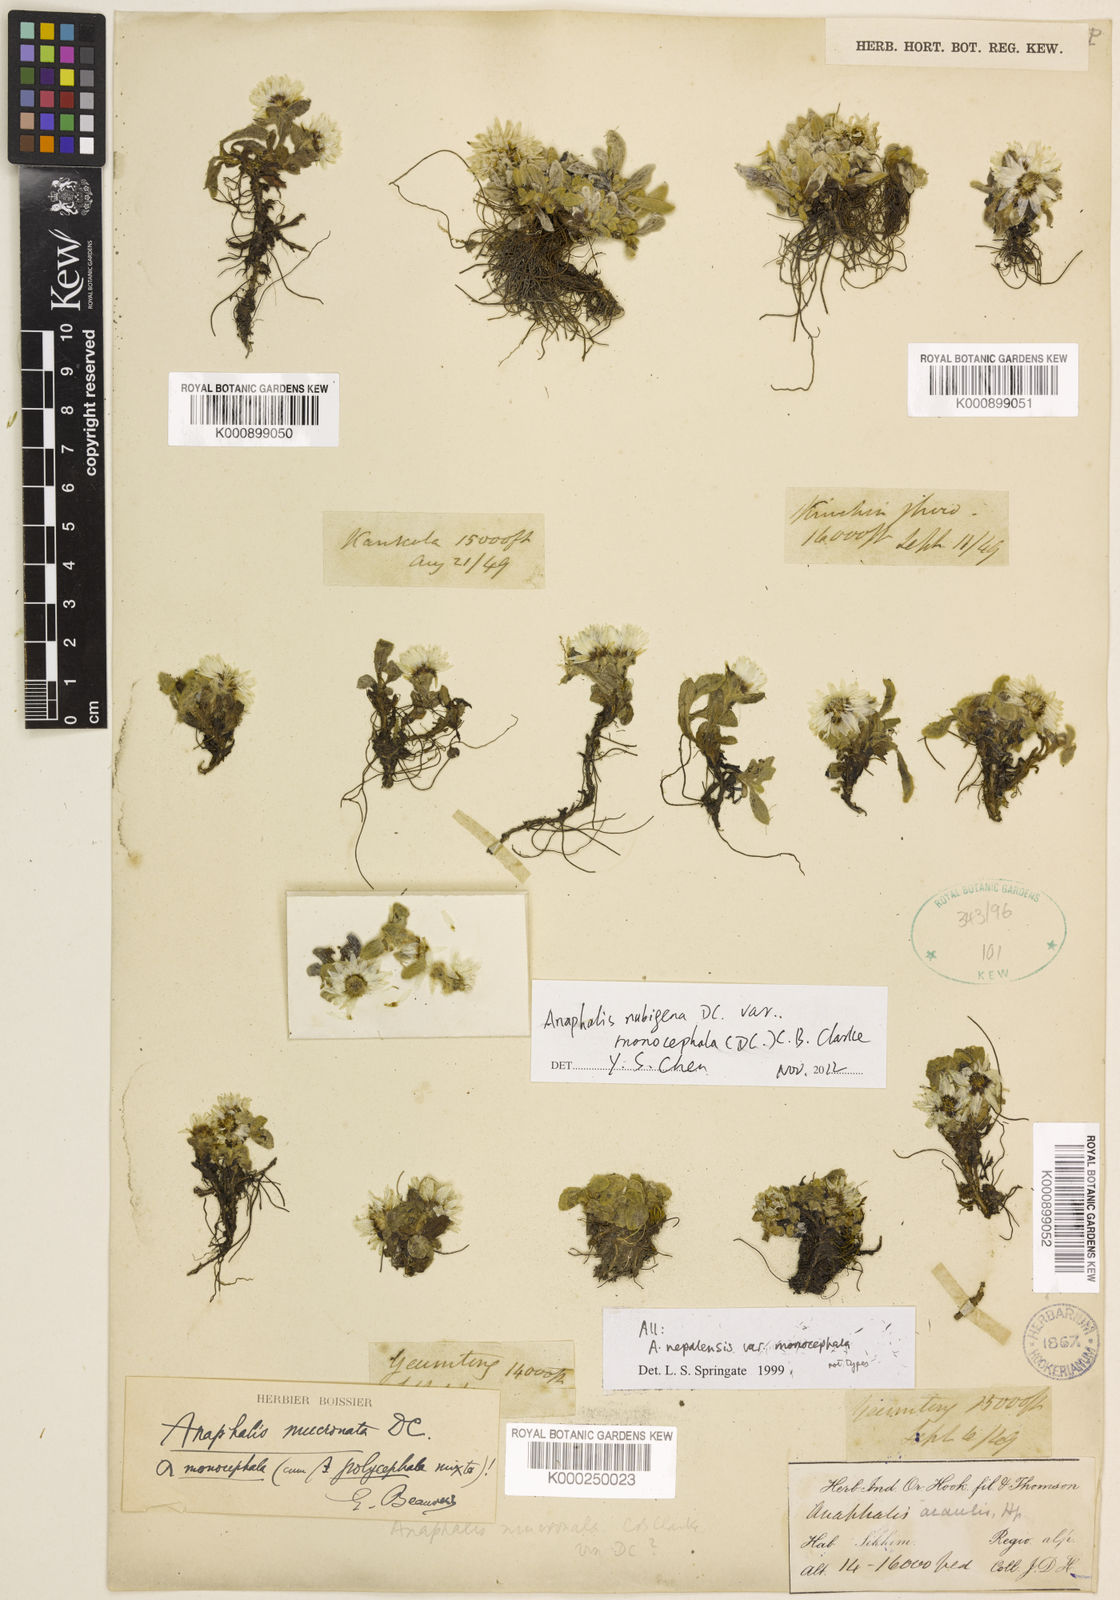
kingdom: Plantae
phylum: Tracheophyta
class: Magnoliopsida
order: Asterales
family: Asteraceae
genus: Anaphalis
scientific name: Anaphalis nepalensis
